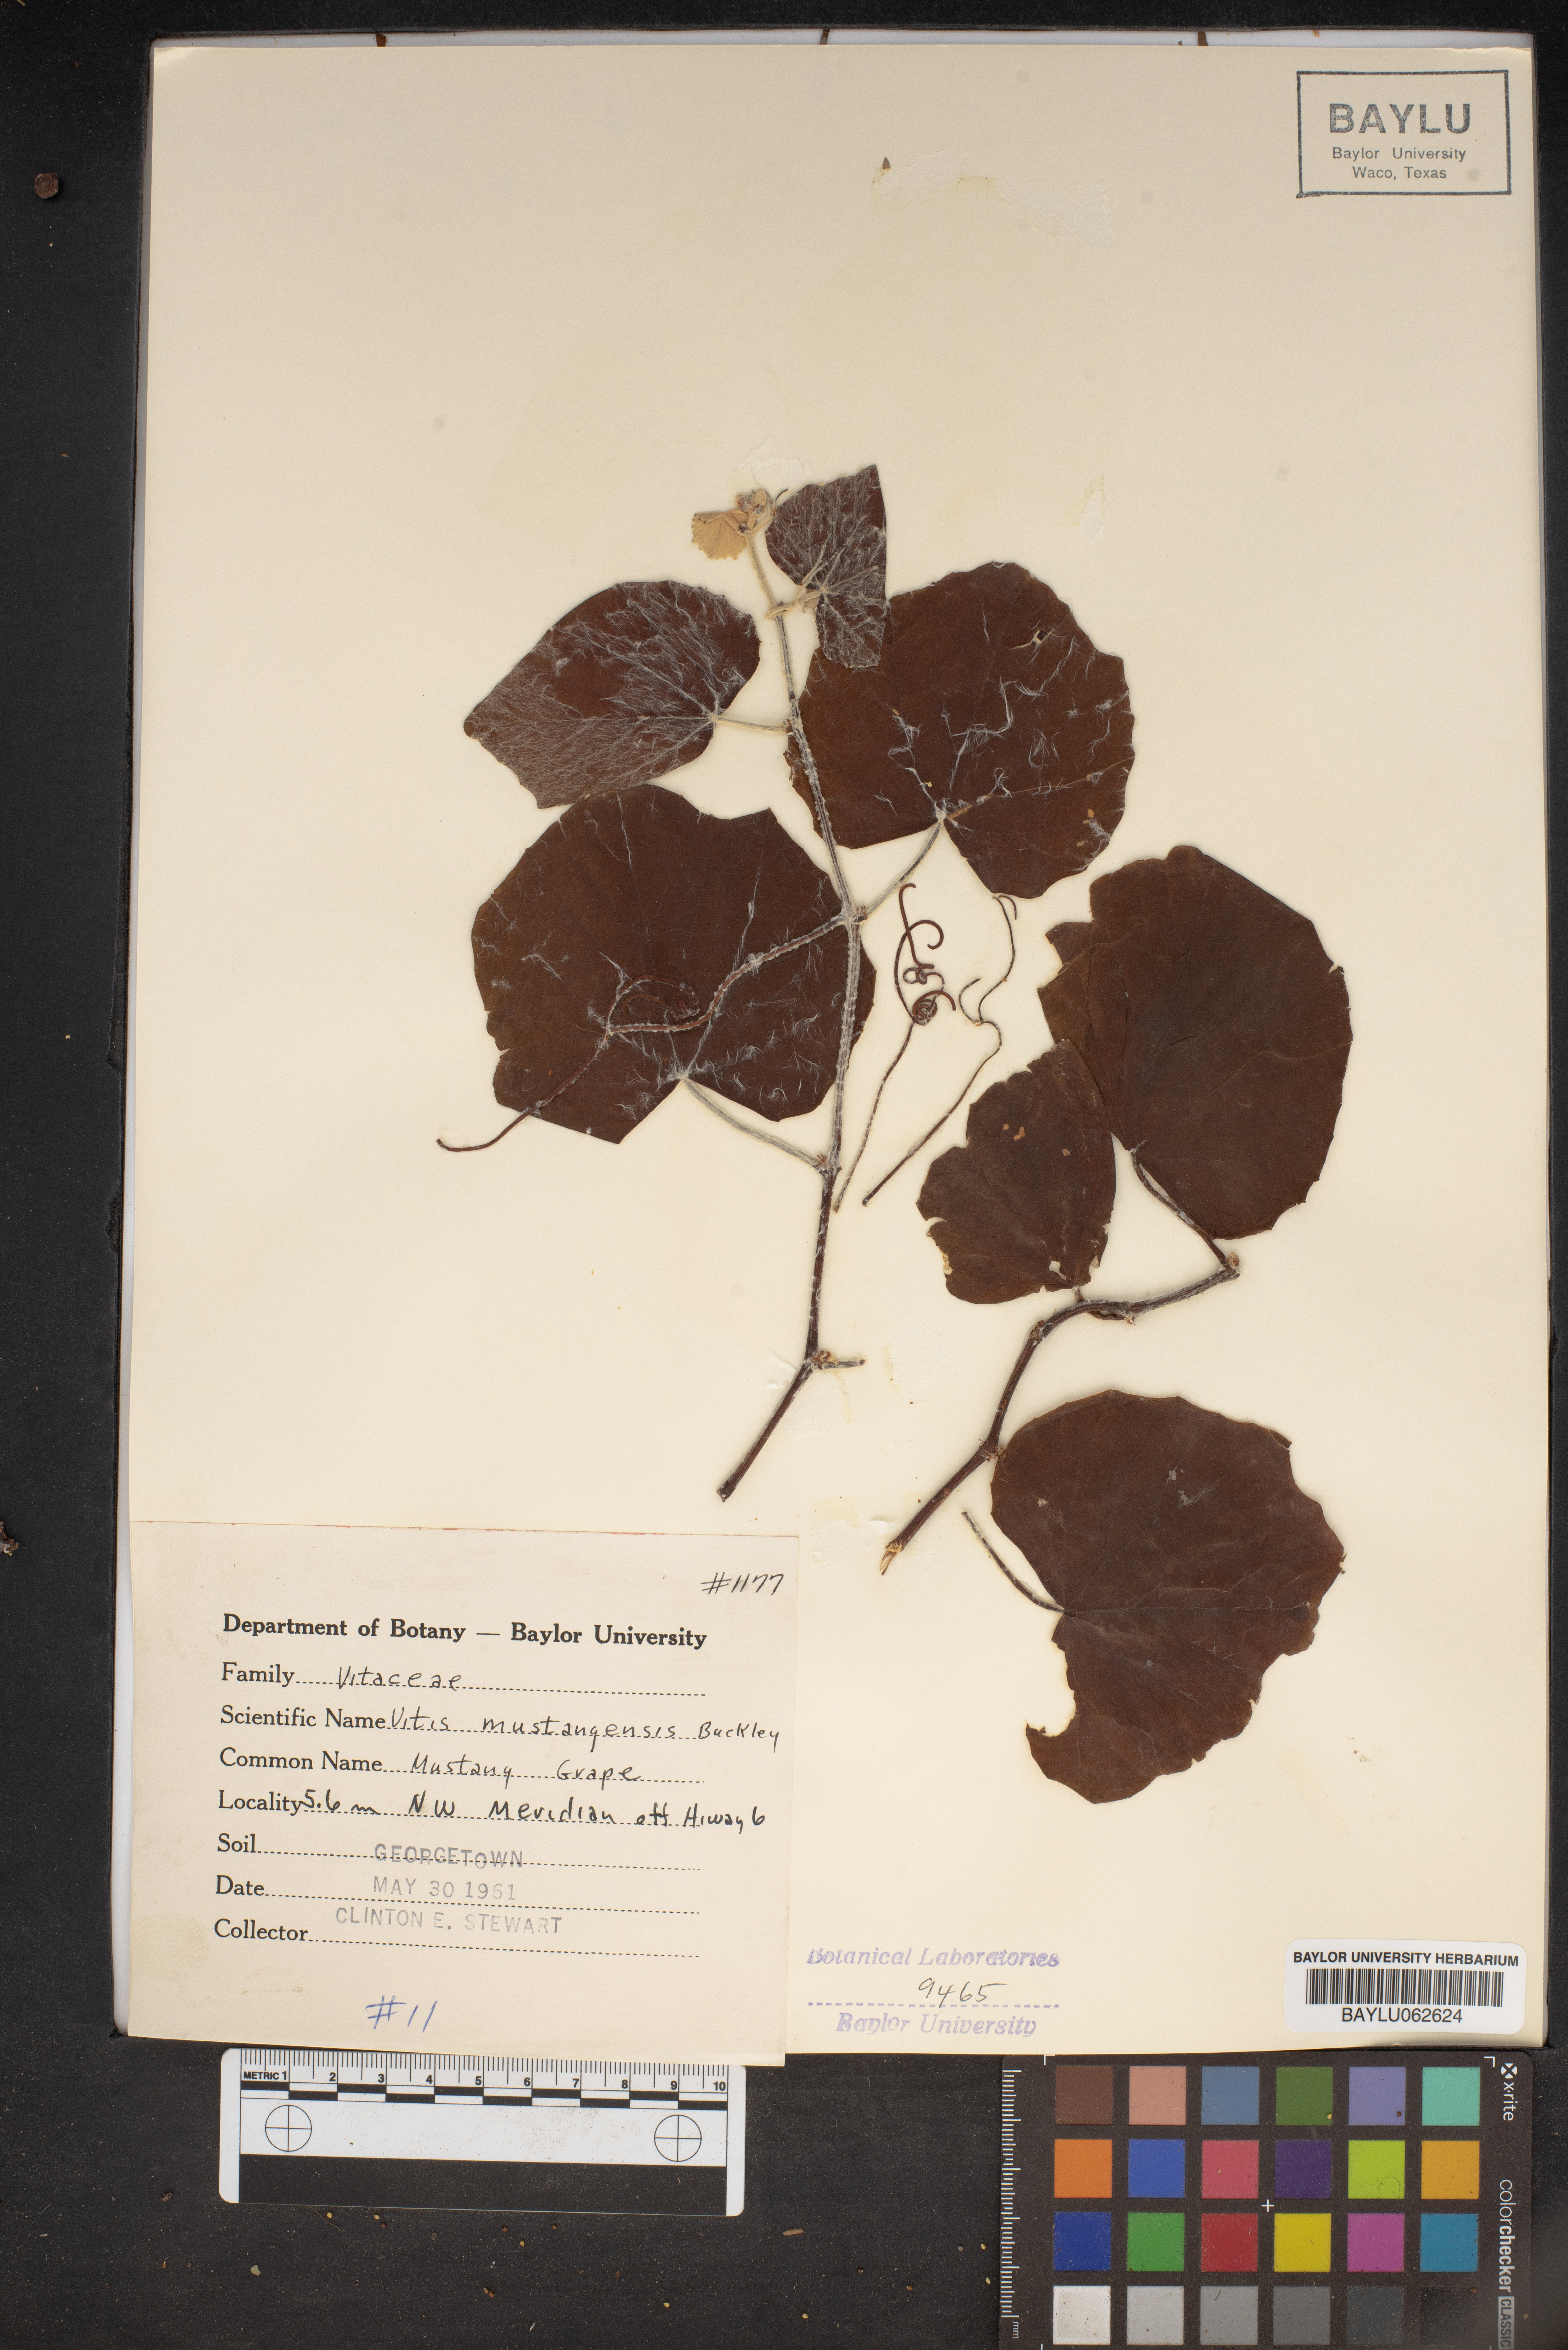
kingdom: Plantae
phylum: Tracheophyta
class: Magnoliopsida
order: Vitales
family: Vitaceae
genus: Vitis
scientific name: Vitis mustangensis
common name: Mustang grape
